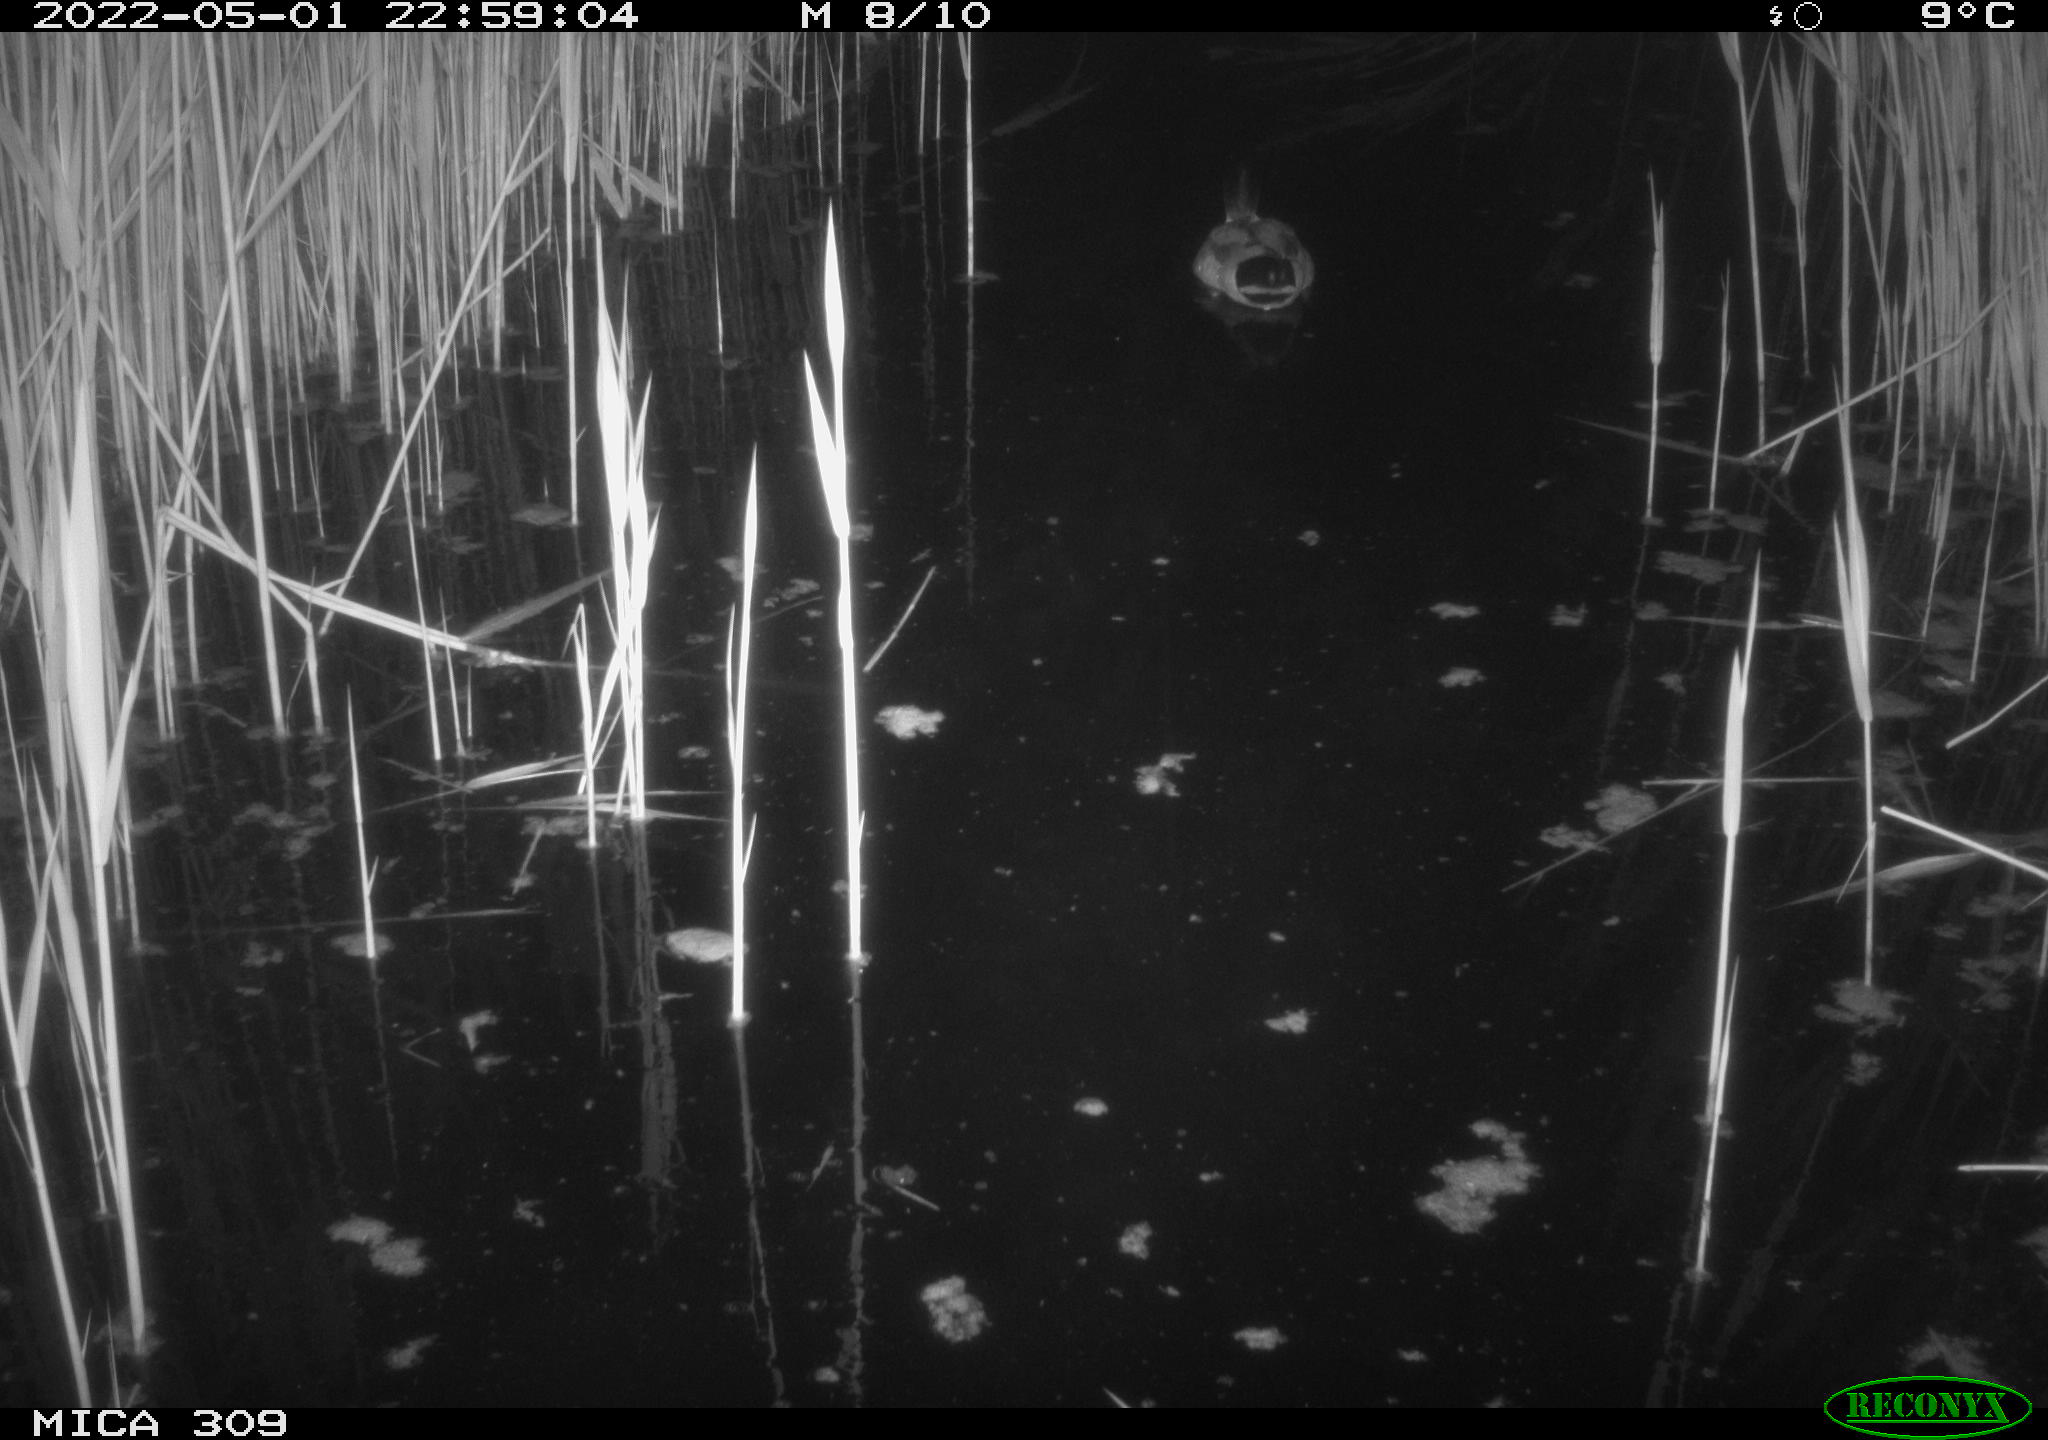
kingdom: Animalia
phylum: Chordata
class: Aves
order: Anseriformes
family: Anatidae
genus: Anas
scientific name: Anas platyrhynchos
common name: Mallard
